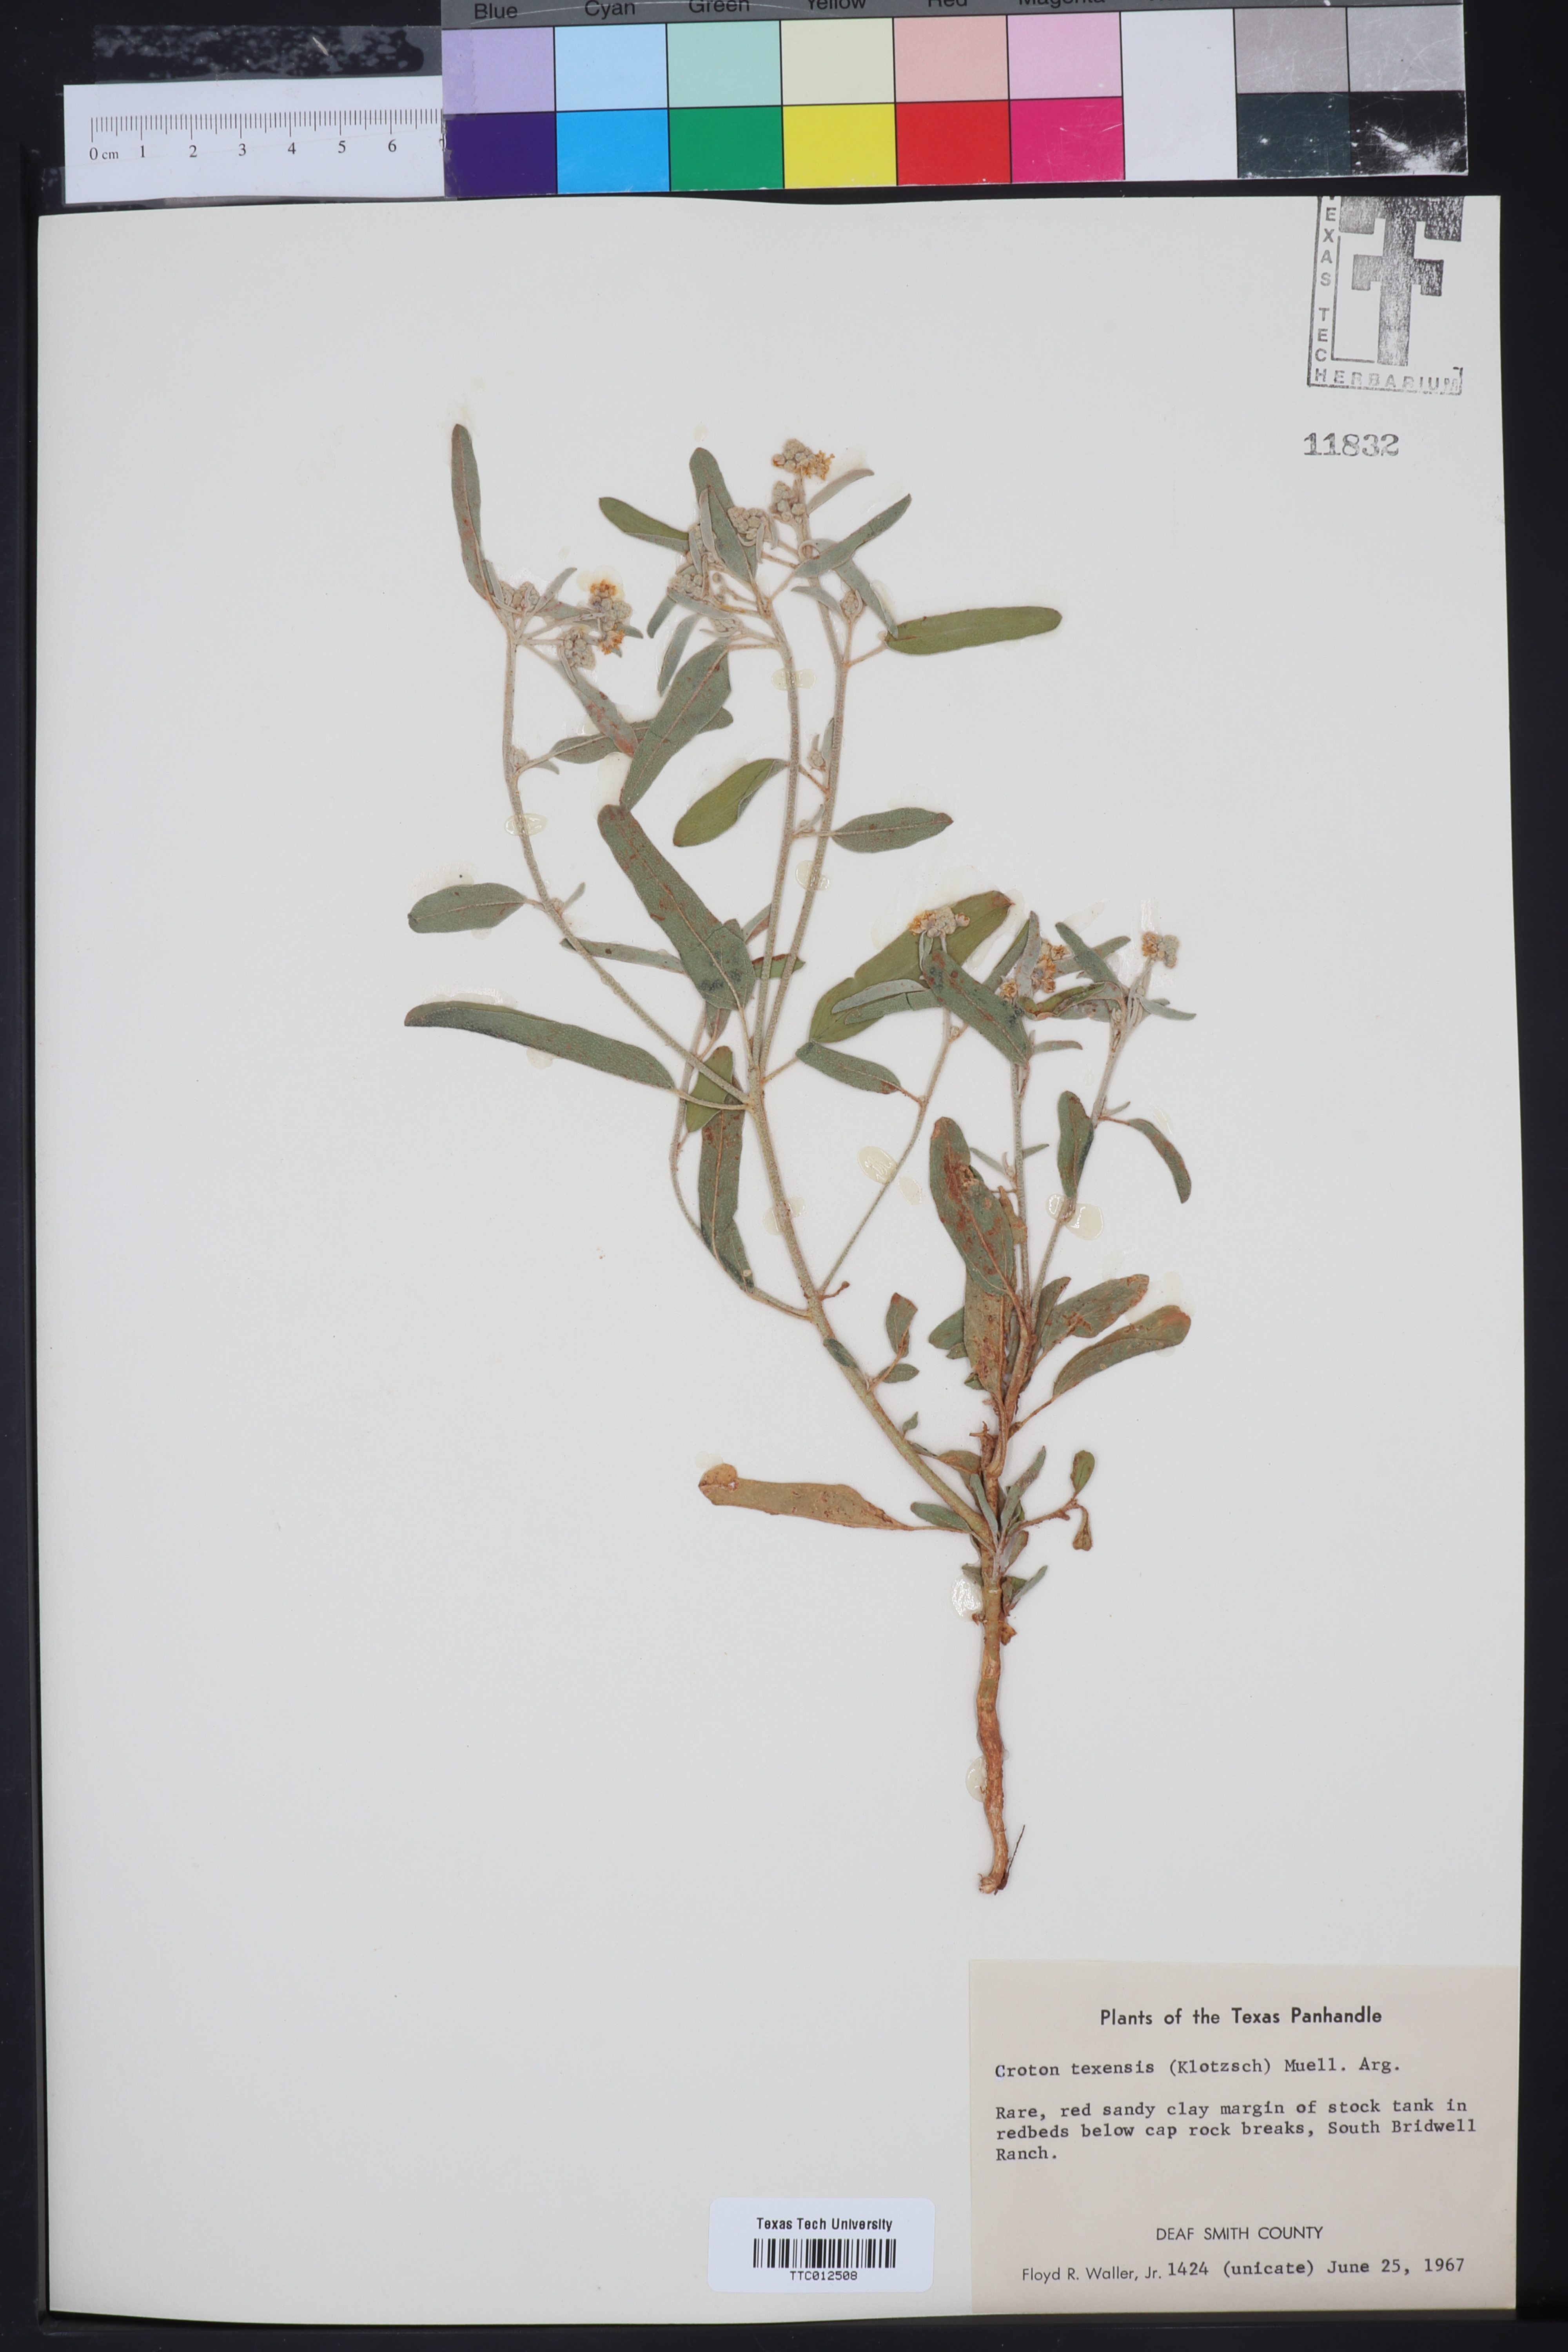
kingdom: Plantae
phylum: Tracheophyta
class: Magnoliopsida
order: Malpighiales
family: Euphorbiaceae
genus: Croton
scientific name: Croton texensis
